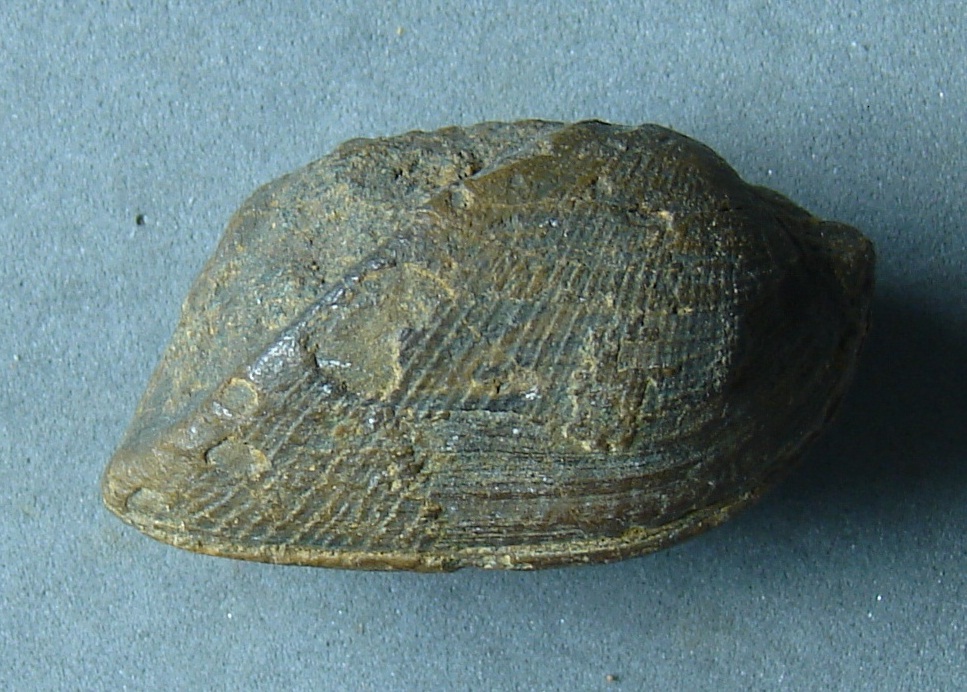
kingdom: Animalia
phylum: Mollusca
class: Bivalvia
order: Arcida
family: Parallelodontidae
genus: Parallelodon
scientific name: Parallelodon carinatus
